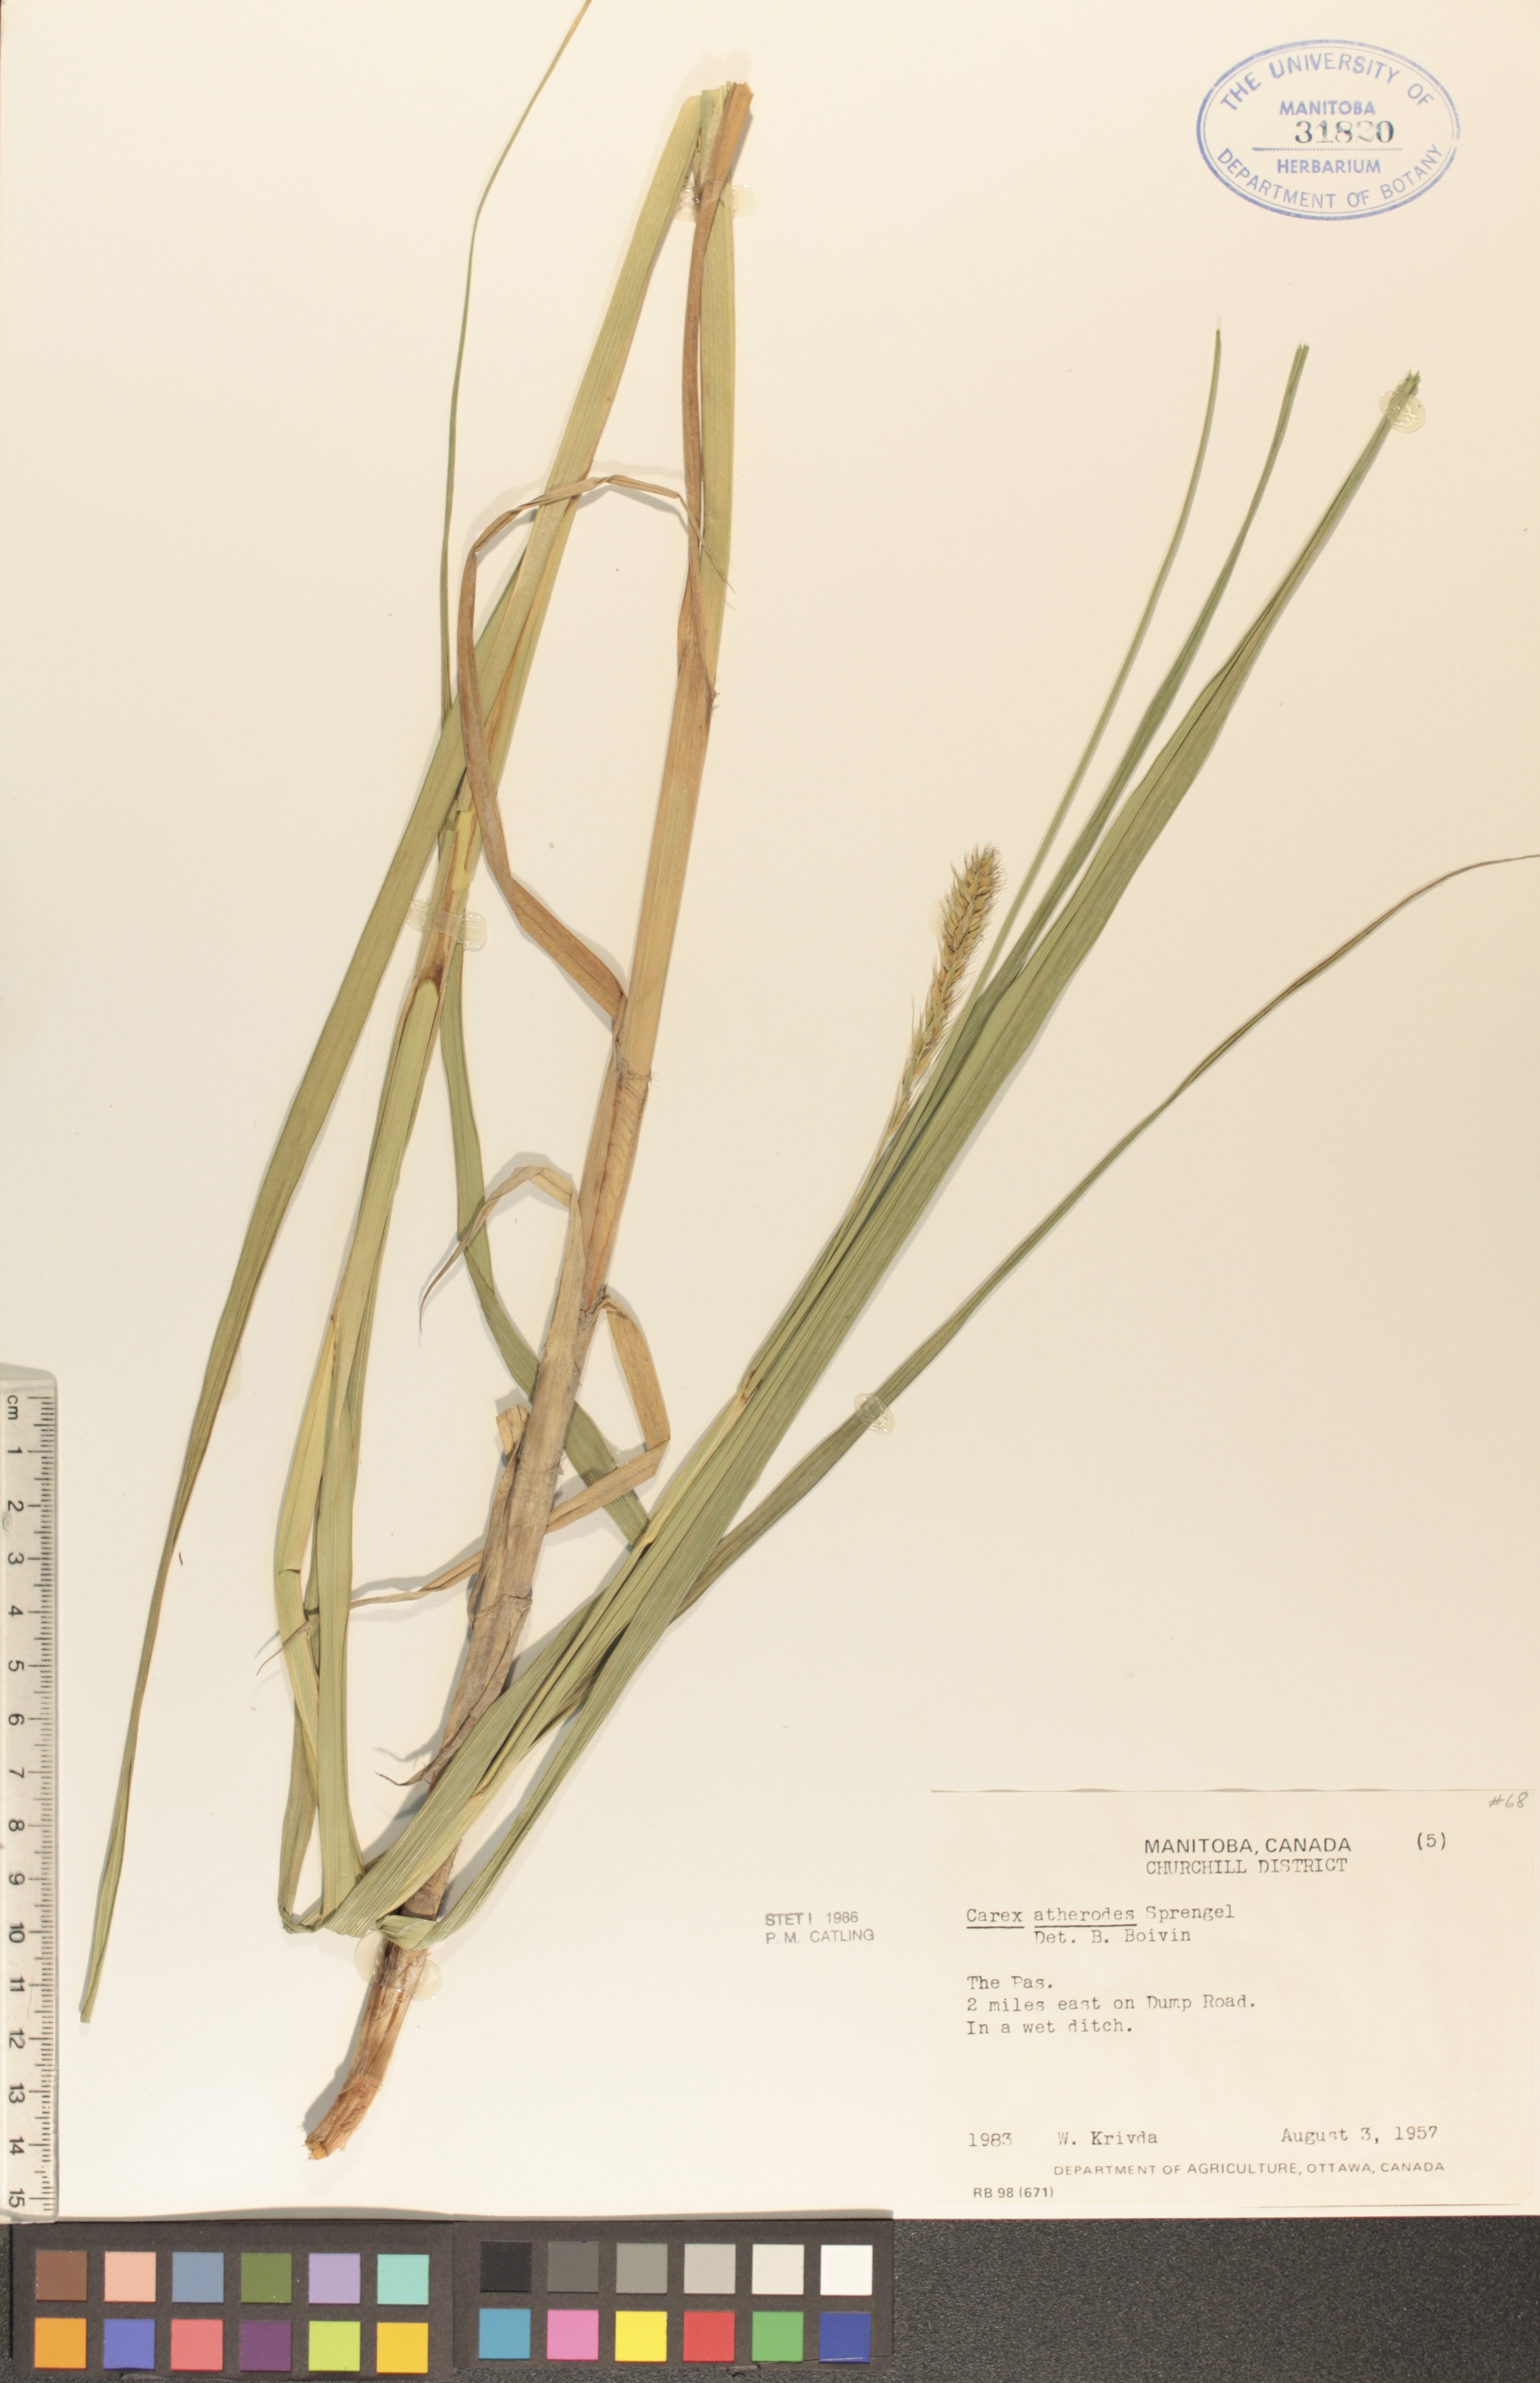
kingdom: Plantae
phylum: Tracheophyta
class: Liliopsida
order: Poales
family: Cyperaceae
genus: Carex
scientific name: Carex atherodes
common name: Wheat sedge
